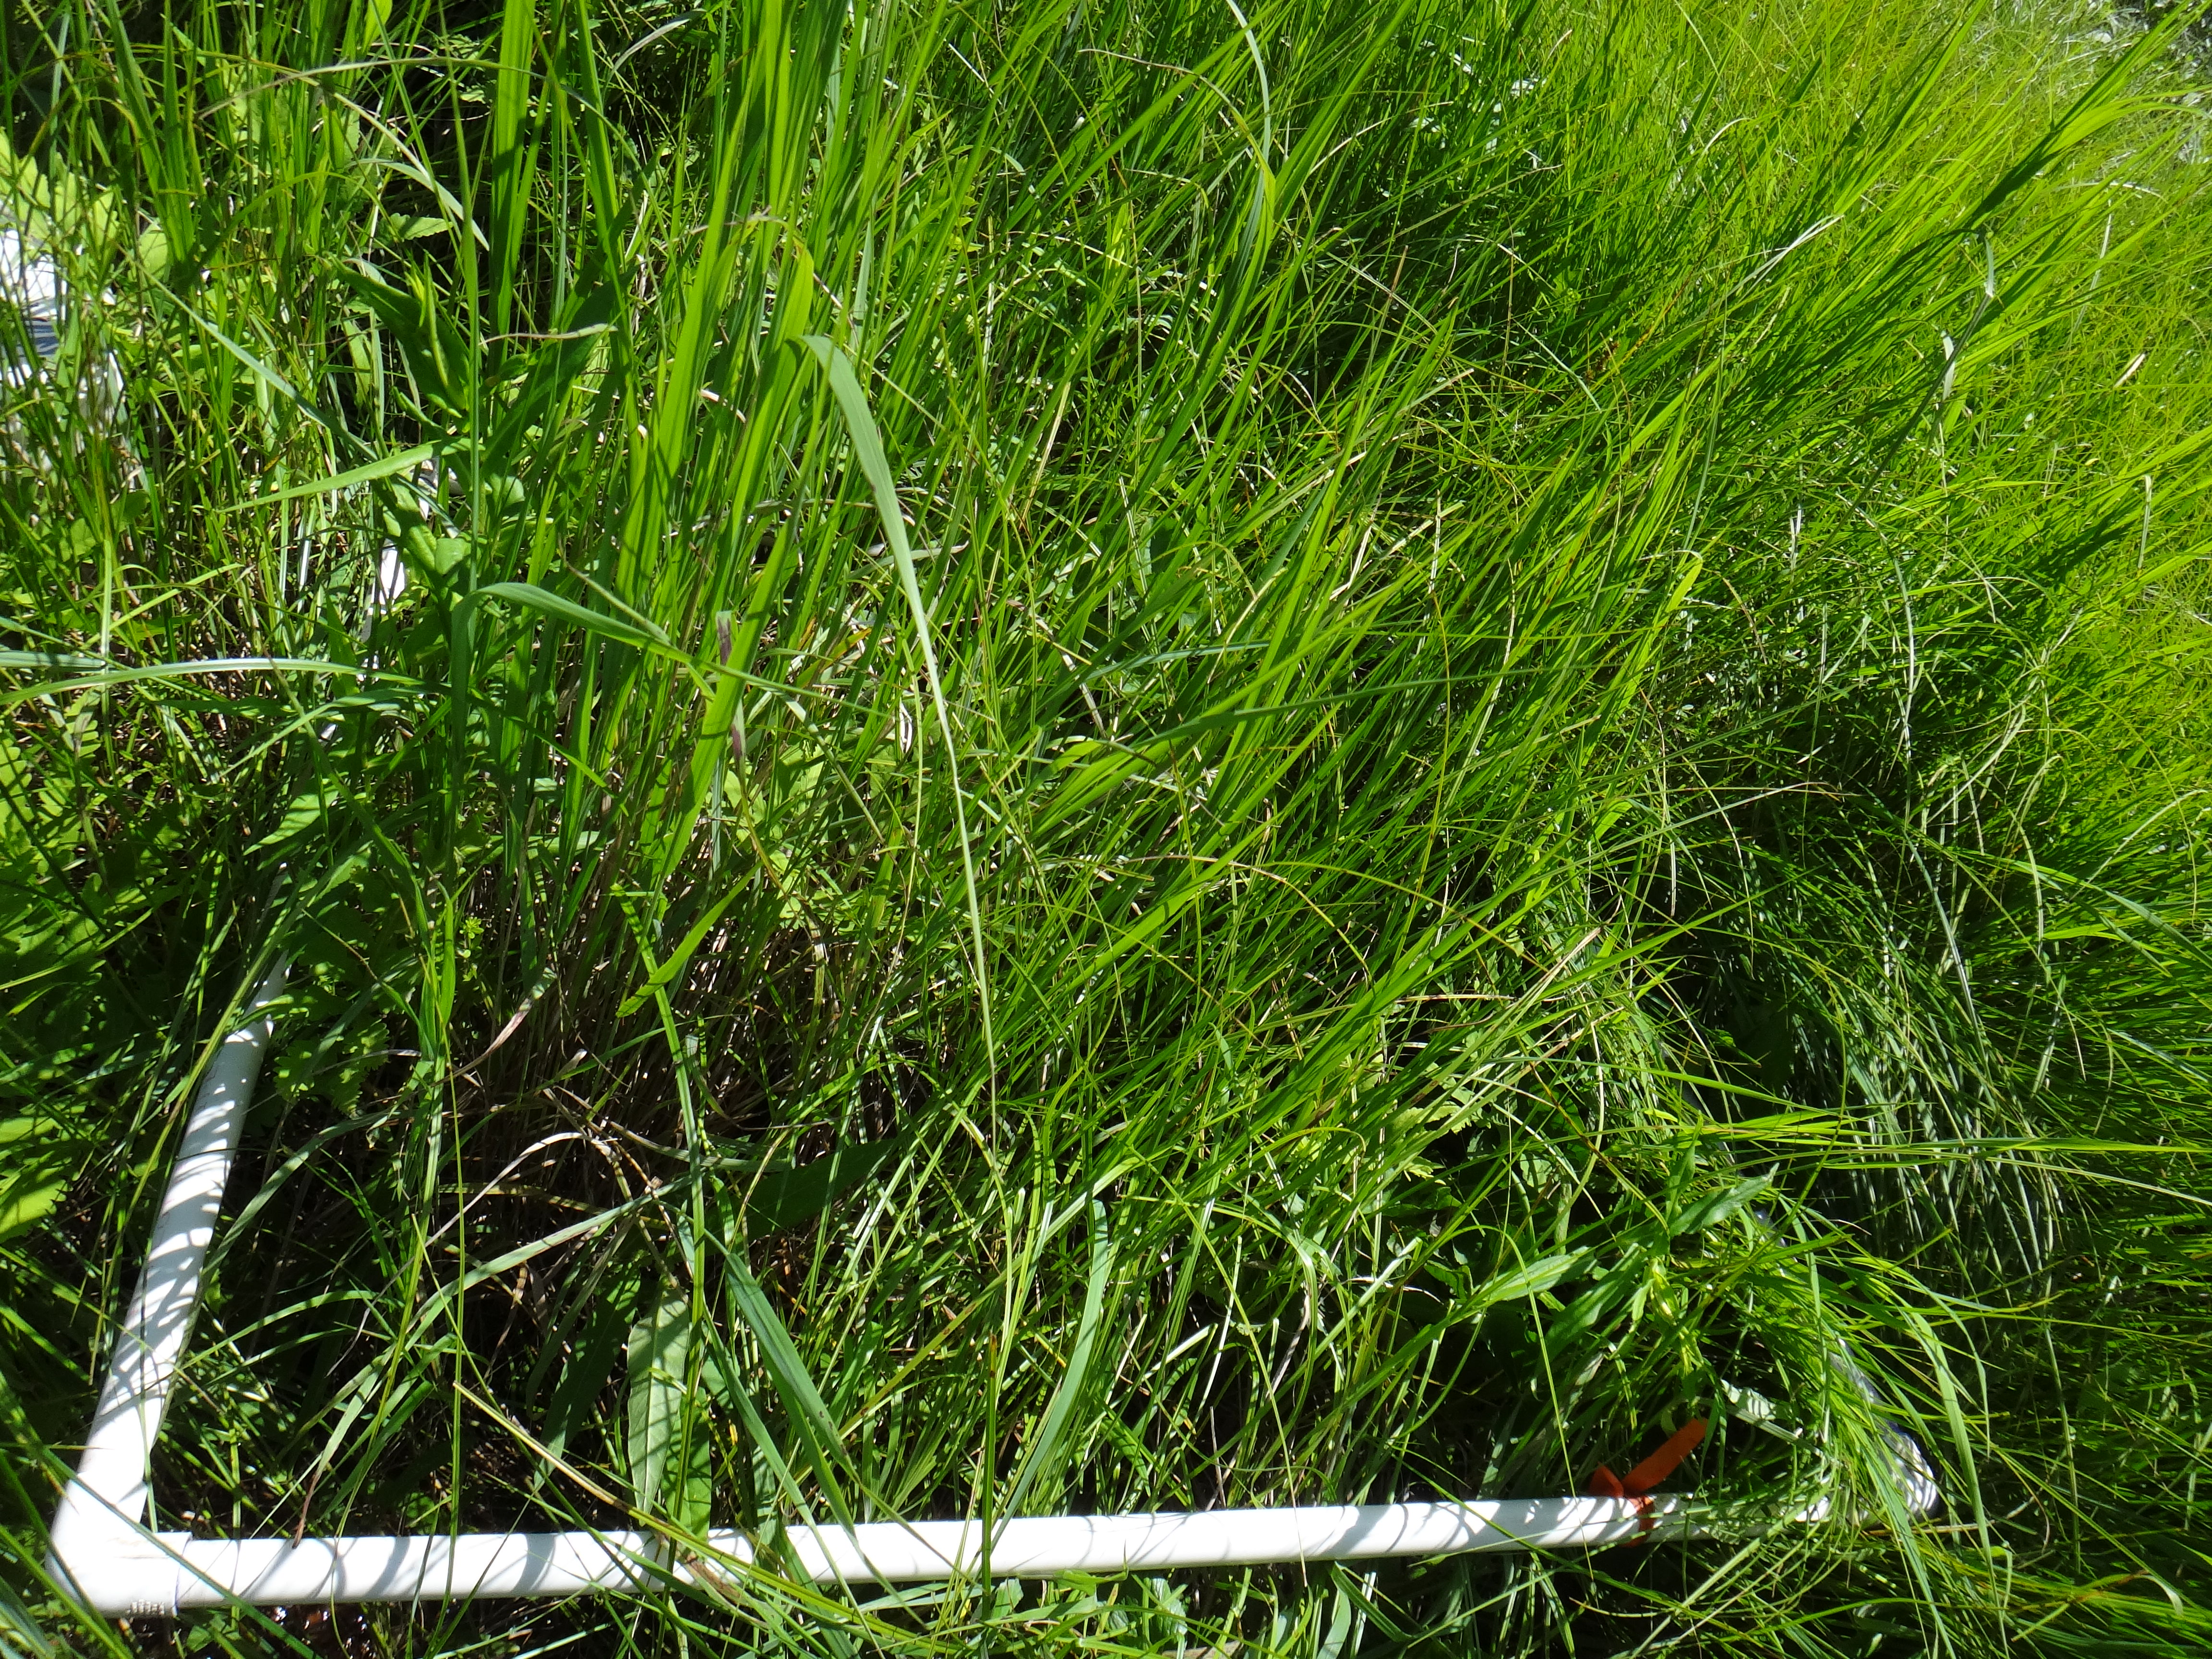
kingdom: Plantae
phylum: Tracheophyta
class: Liliopsida
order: Poales
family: Cyperaceae
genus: Carex
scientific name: Carex sartwellii
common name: Sartwell's sedge
